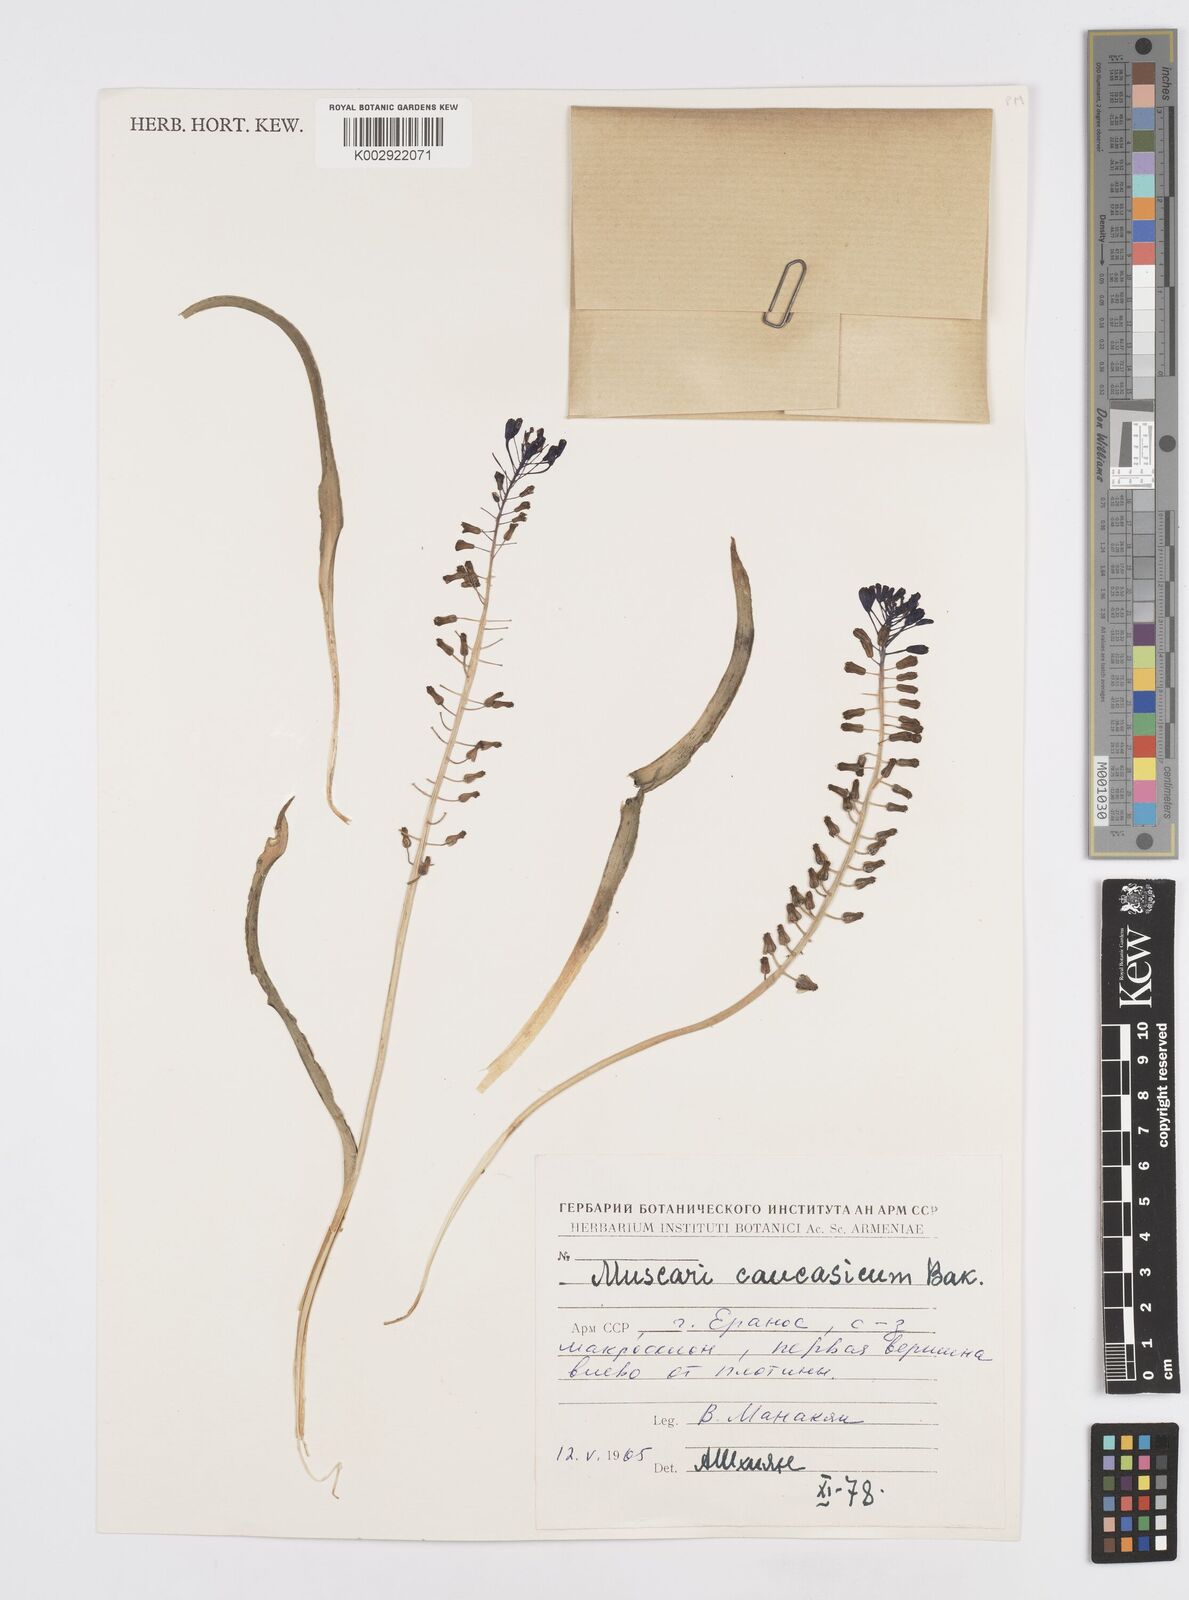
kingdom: Plantae
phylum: Tracheophyta
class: Liliopsida
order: Asparagales
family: Asparagaceae
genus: Muscari
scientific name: Muscari caucasicum
